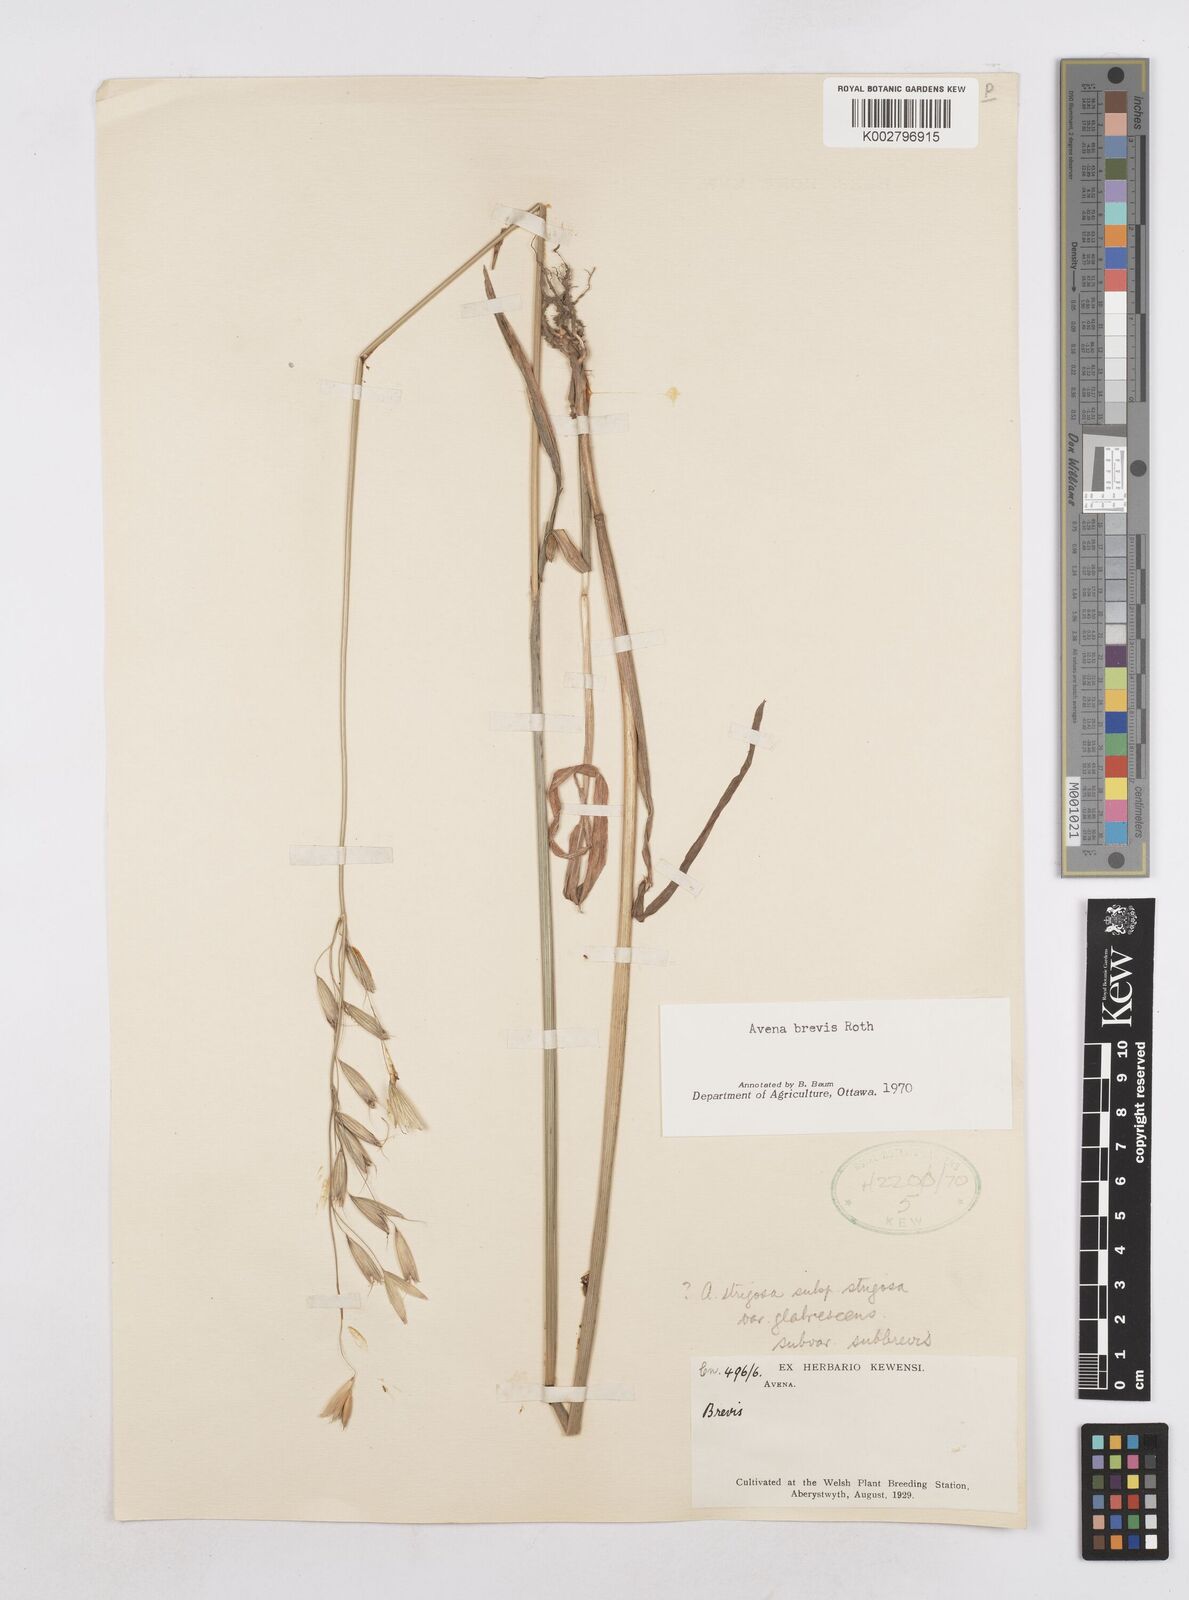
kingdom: Plantae
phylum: Tracheophyta
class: Liliopsida
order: Poales
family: Poaceae
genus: Avena
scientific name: Avena brevis
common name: Short oat
